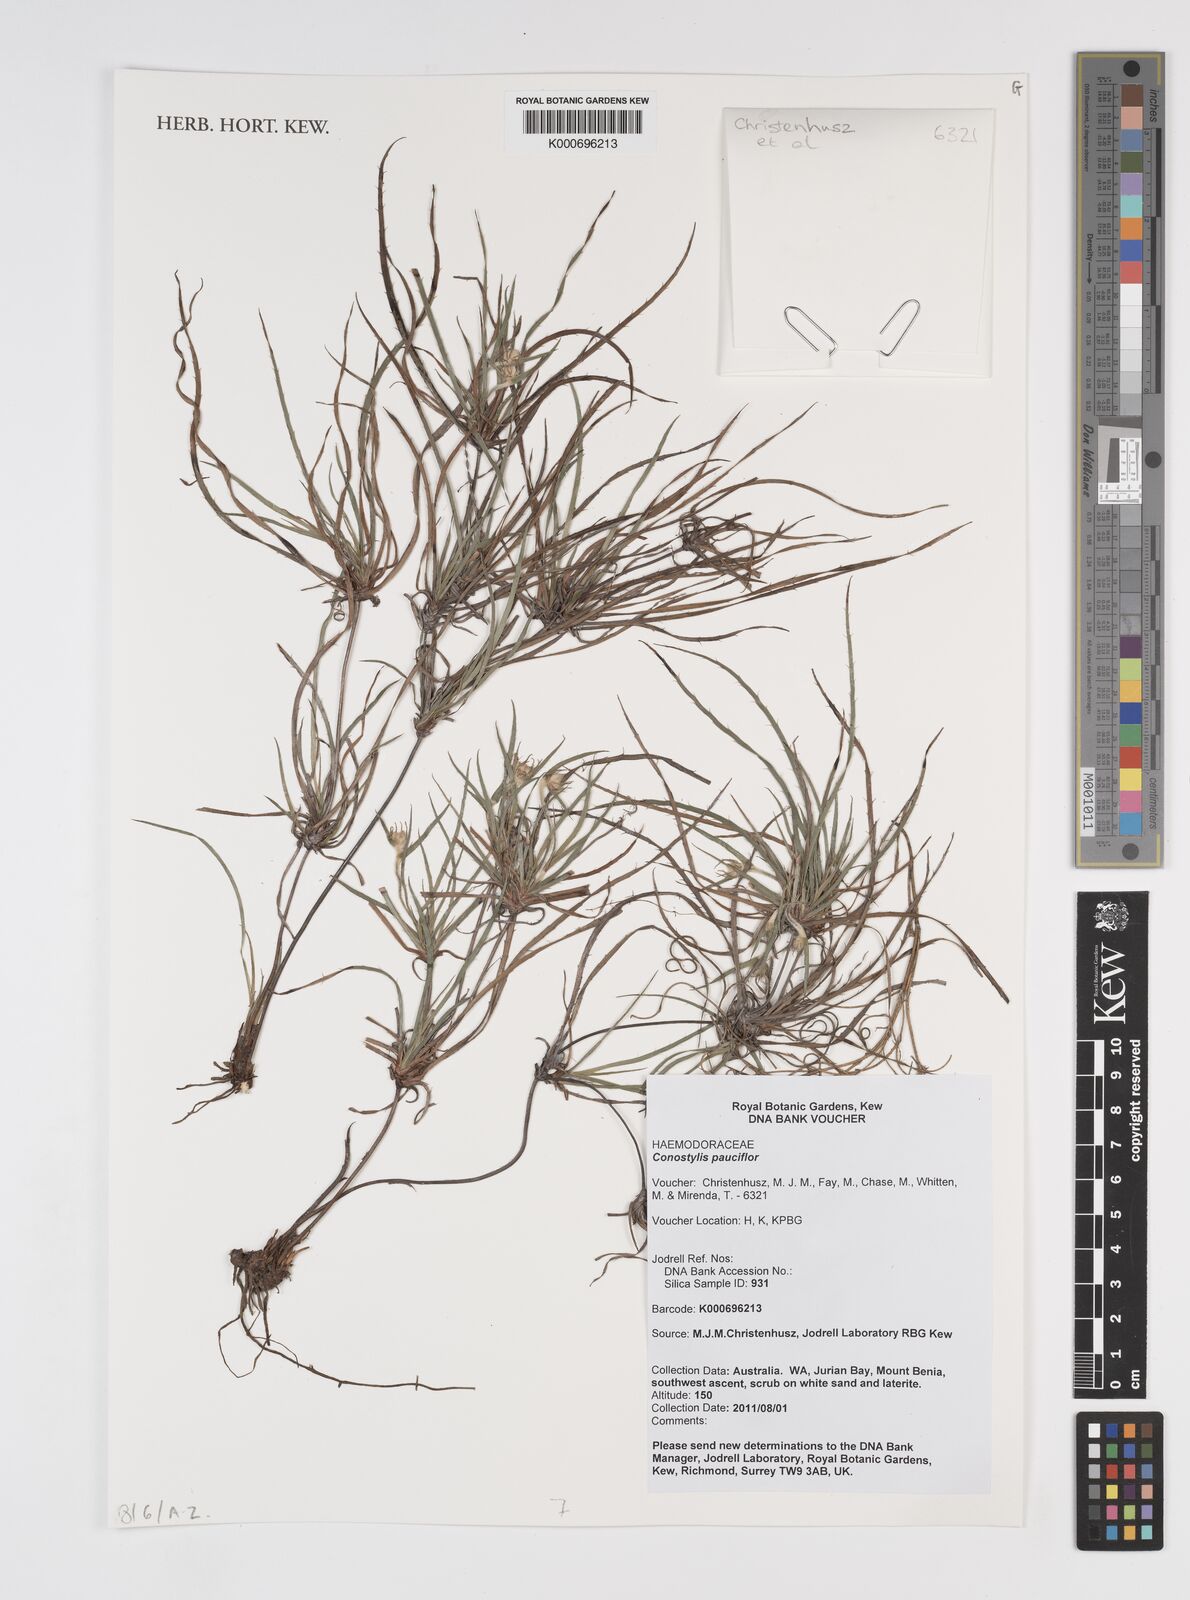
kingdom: Plantae
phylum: Tracheophyta
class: Liliopsida
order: Commelinales
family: Haemodoraceae
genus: Conostylis
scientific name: Conostylis pauciflora
